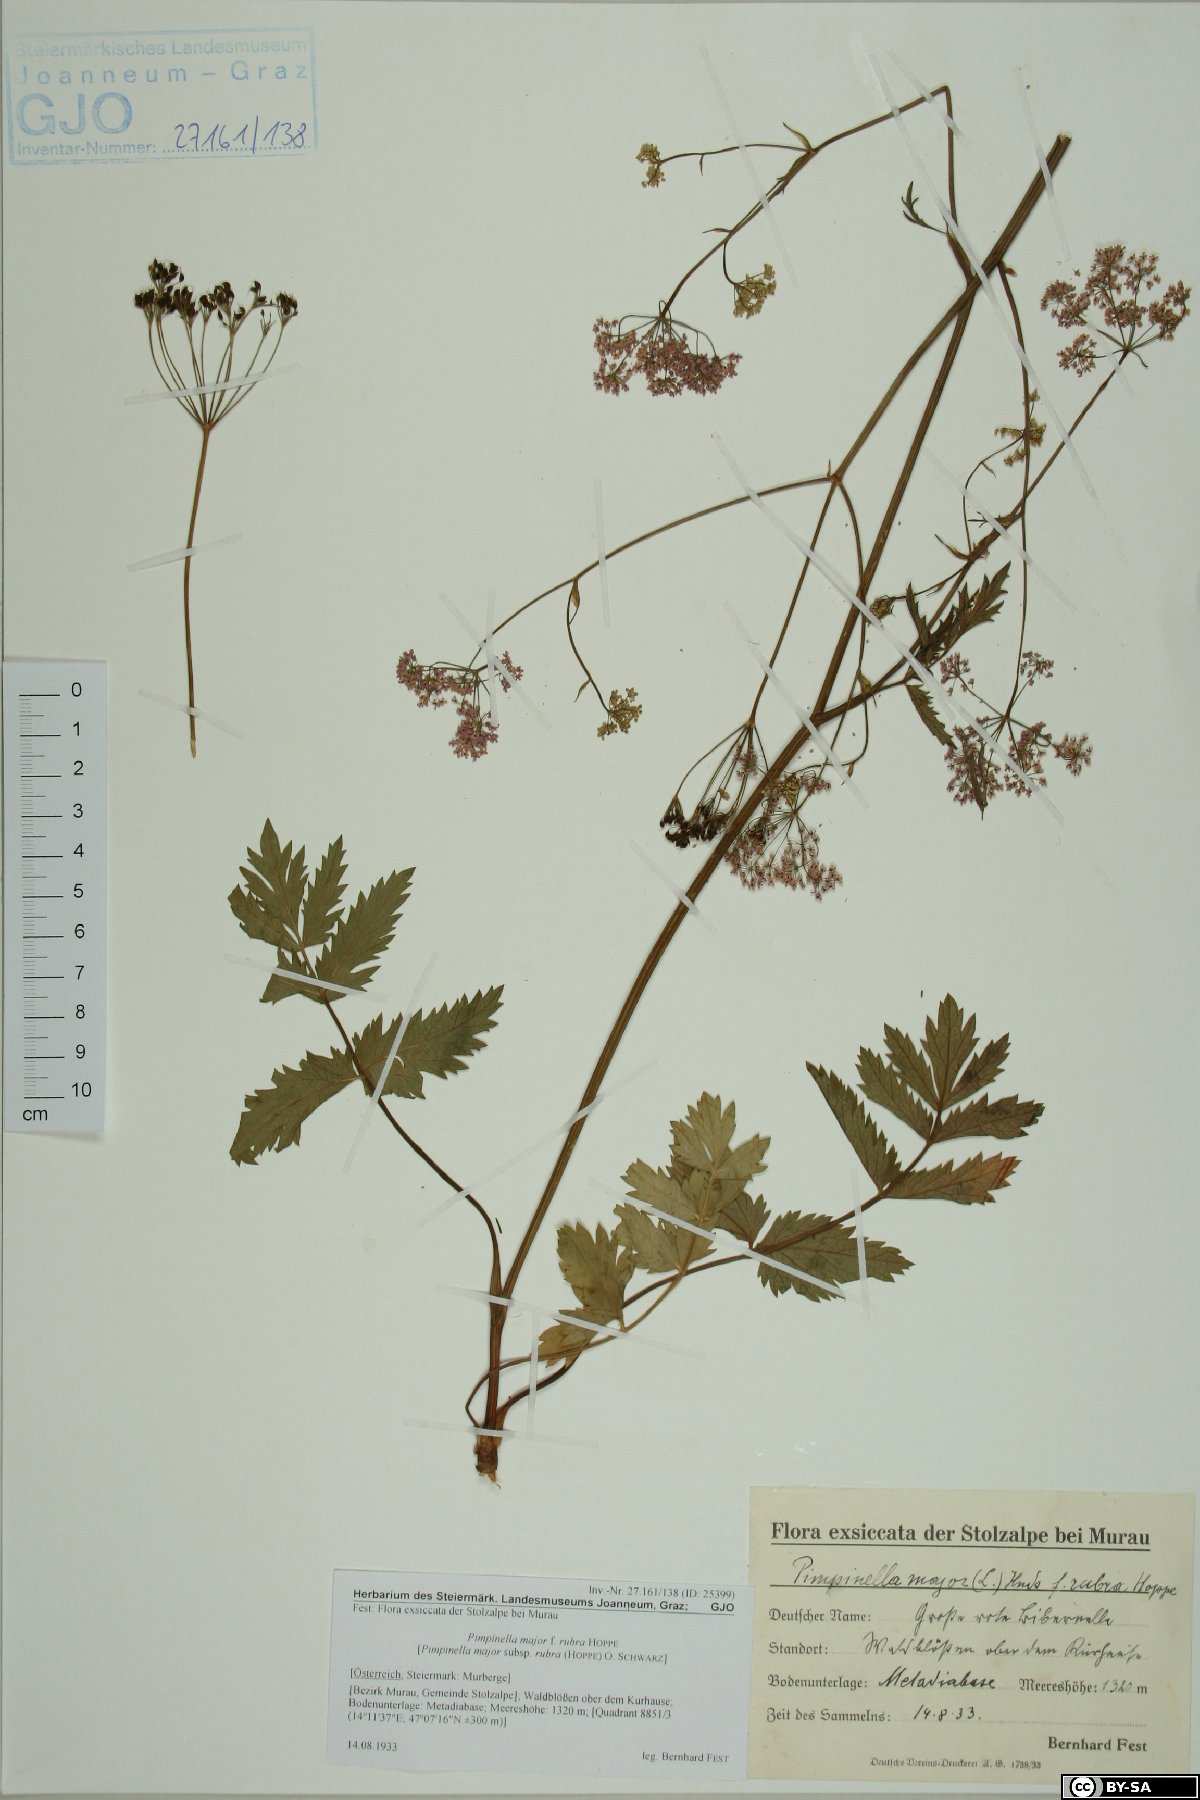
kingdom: Plantae
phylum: Tracheophyta
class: Magnoliopsida
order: Apiales
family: Apiaceae
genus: Pimpinella
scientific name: Pimpinella major
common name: Greater burnet-saxifrage
